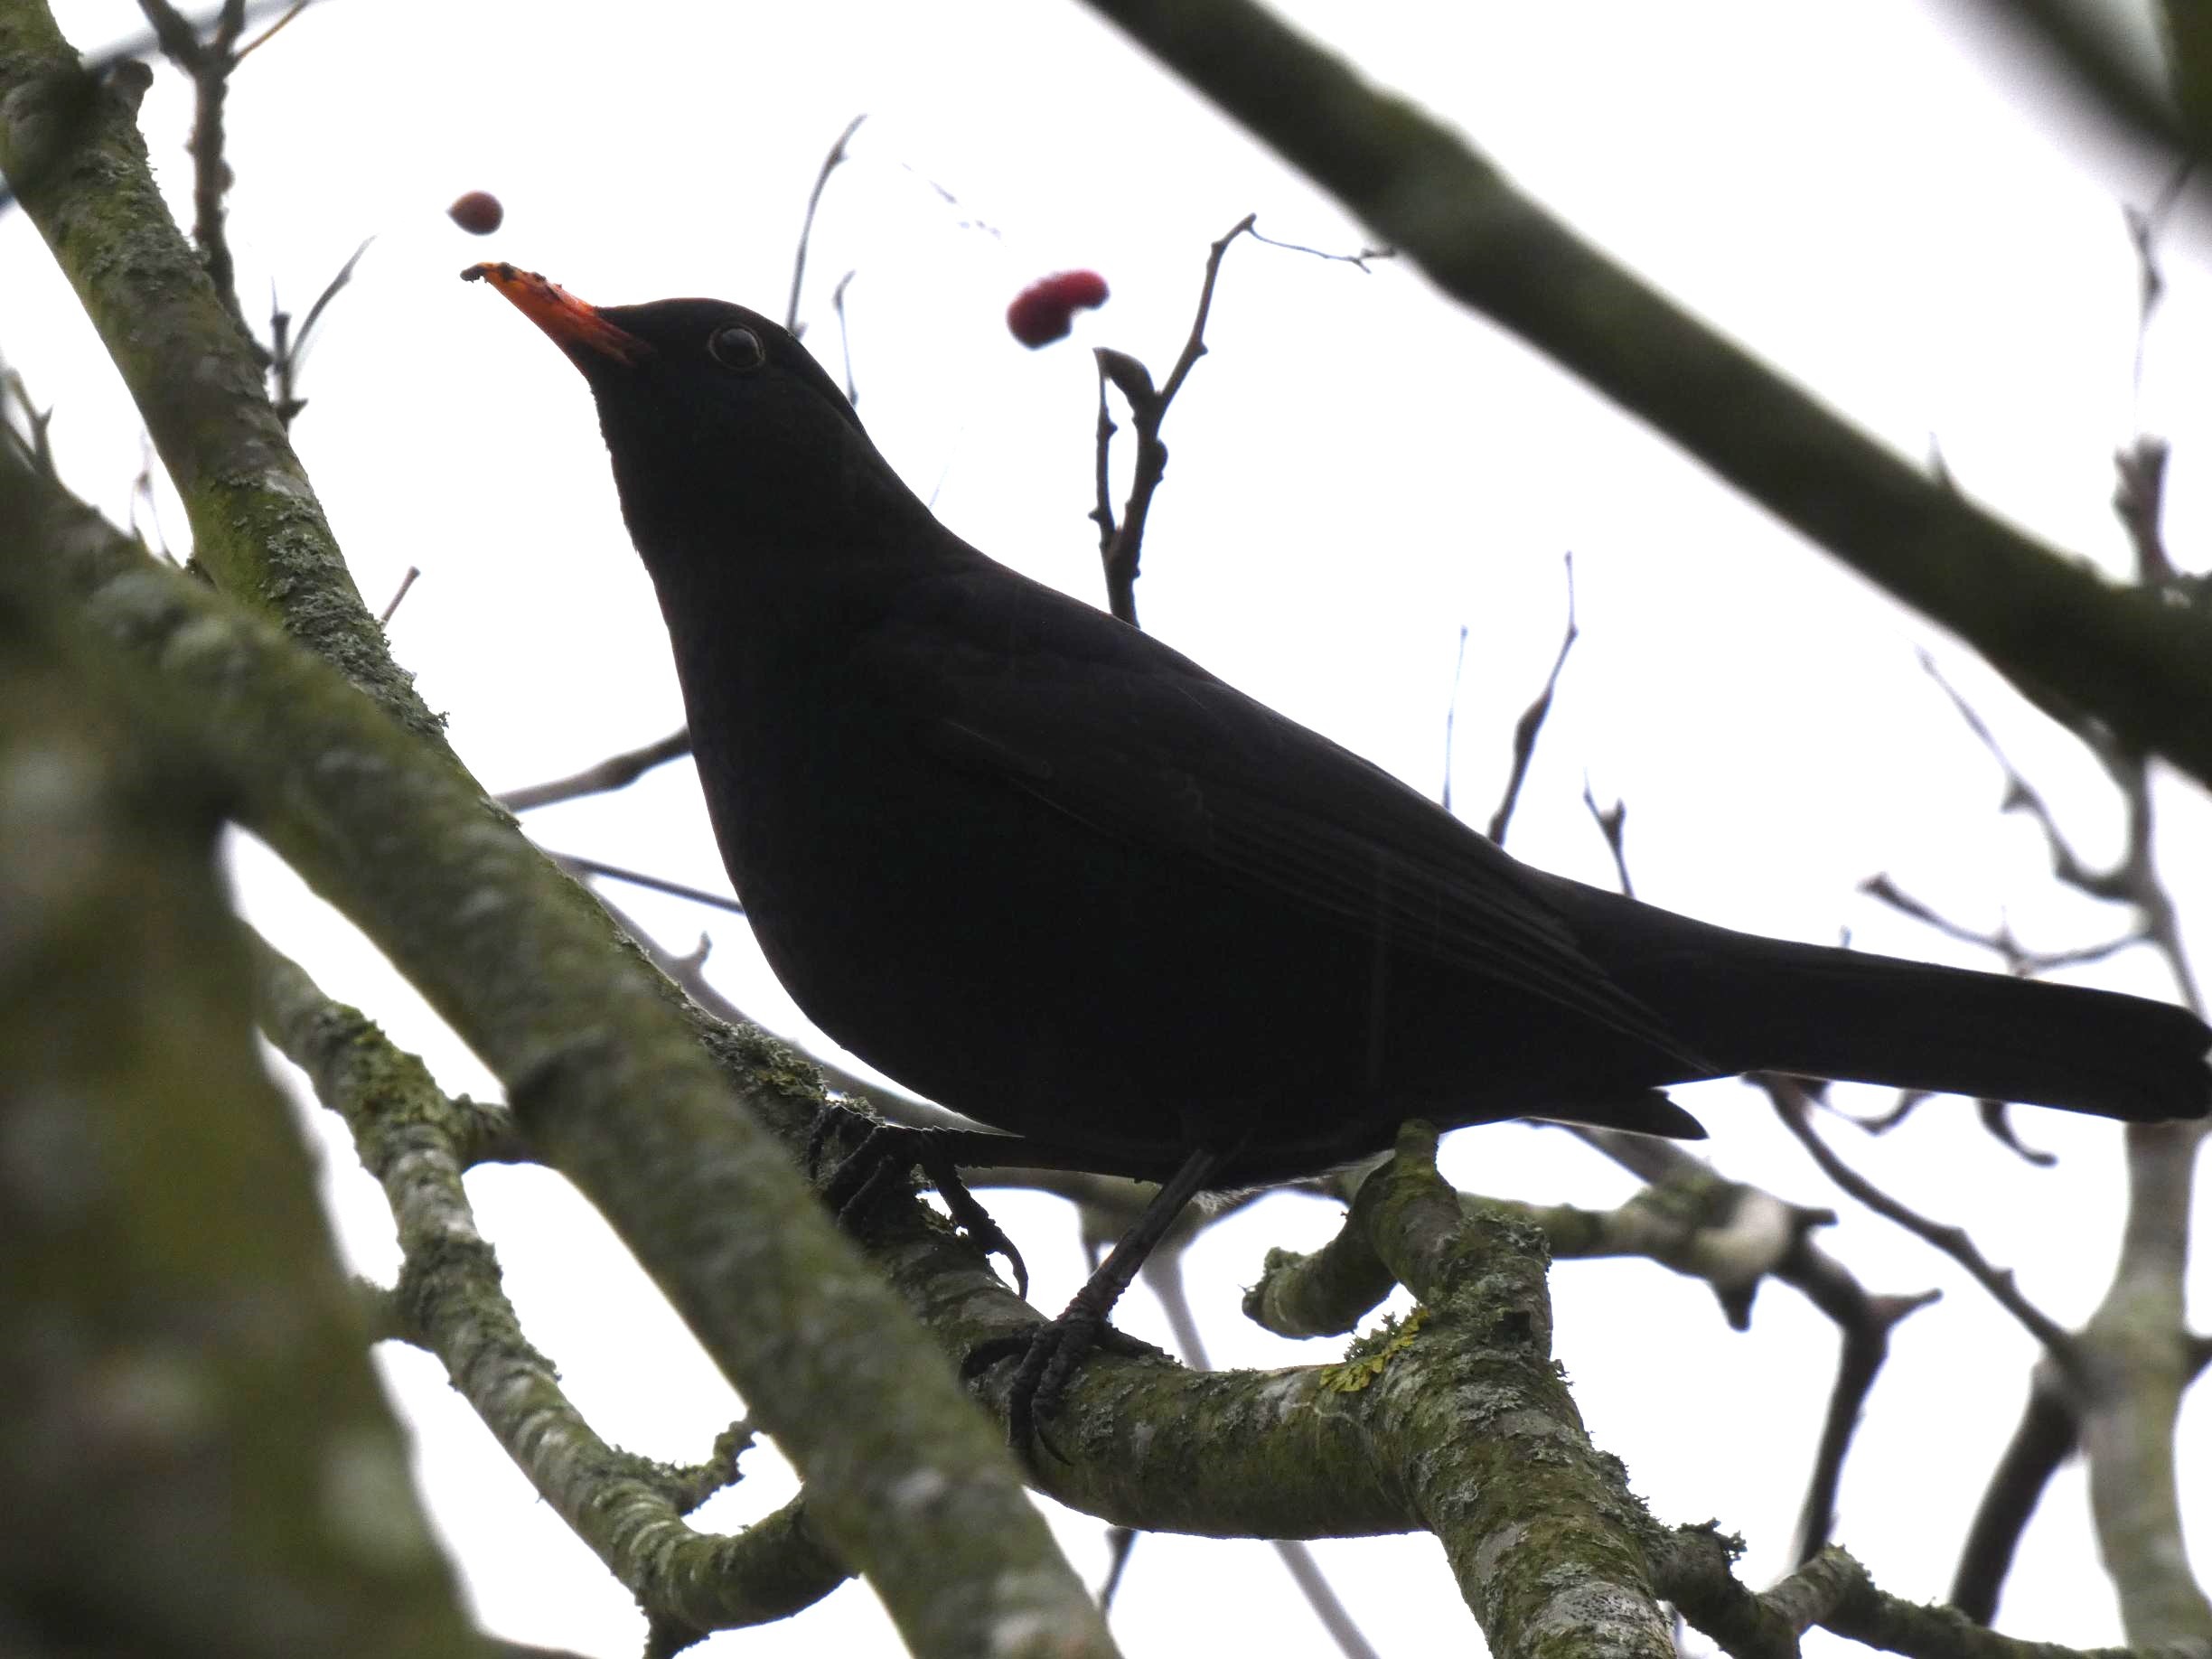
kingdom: Animalia
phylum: Chordata
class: Aves
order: Passeriformes
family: Turdidae
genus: Turdus
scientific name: Turdus merula
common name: Solsort
